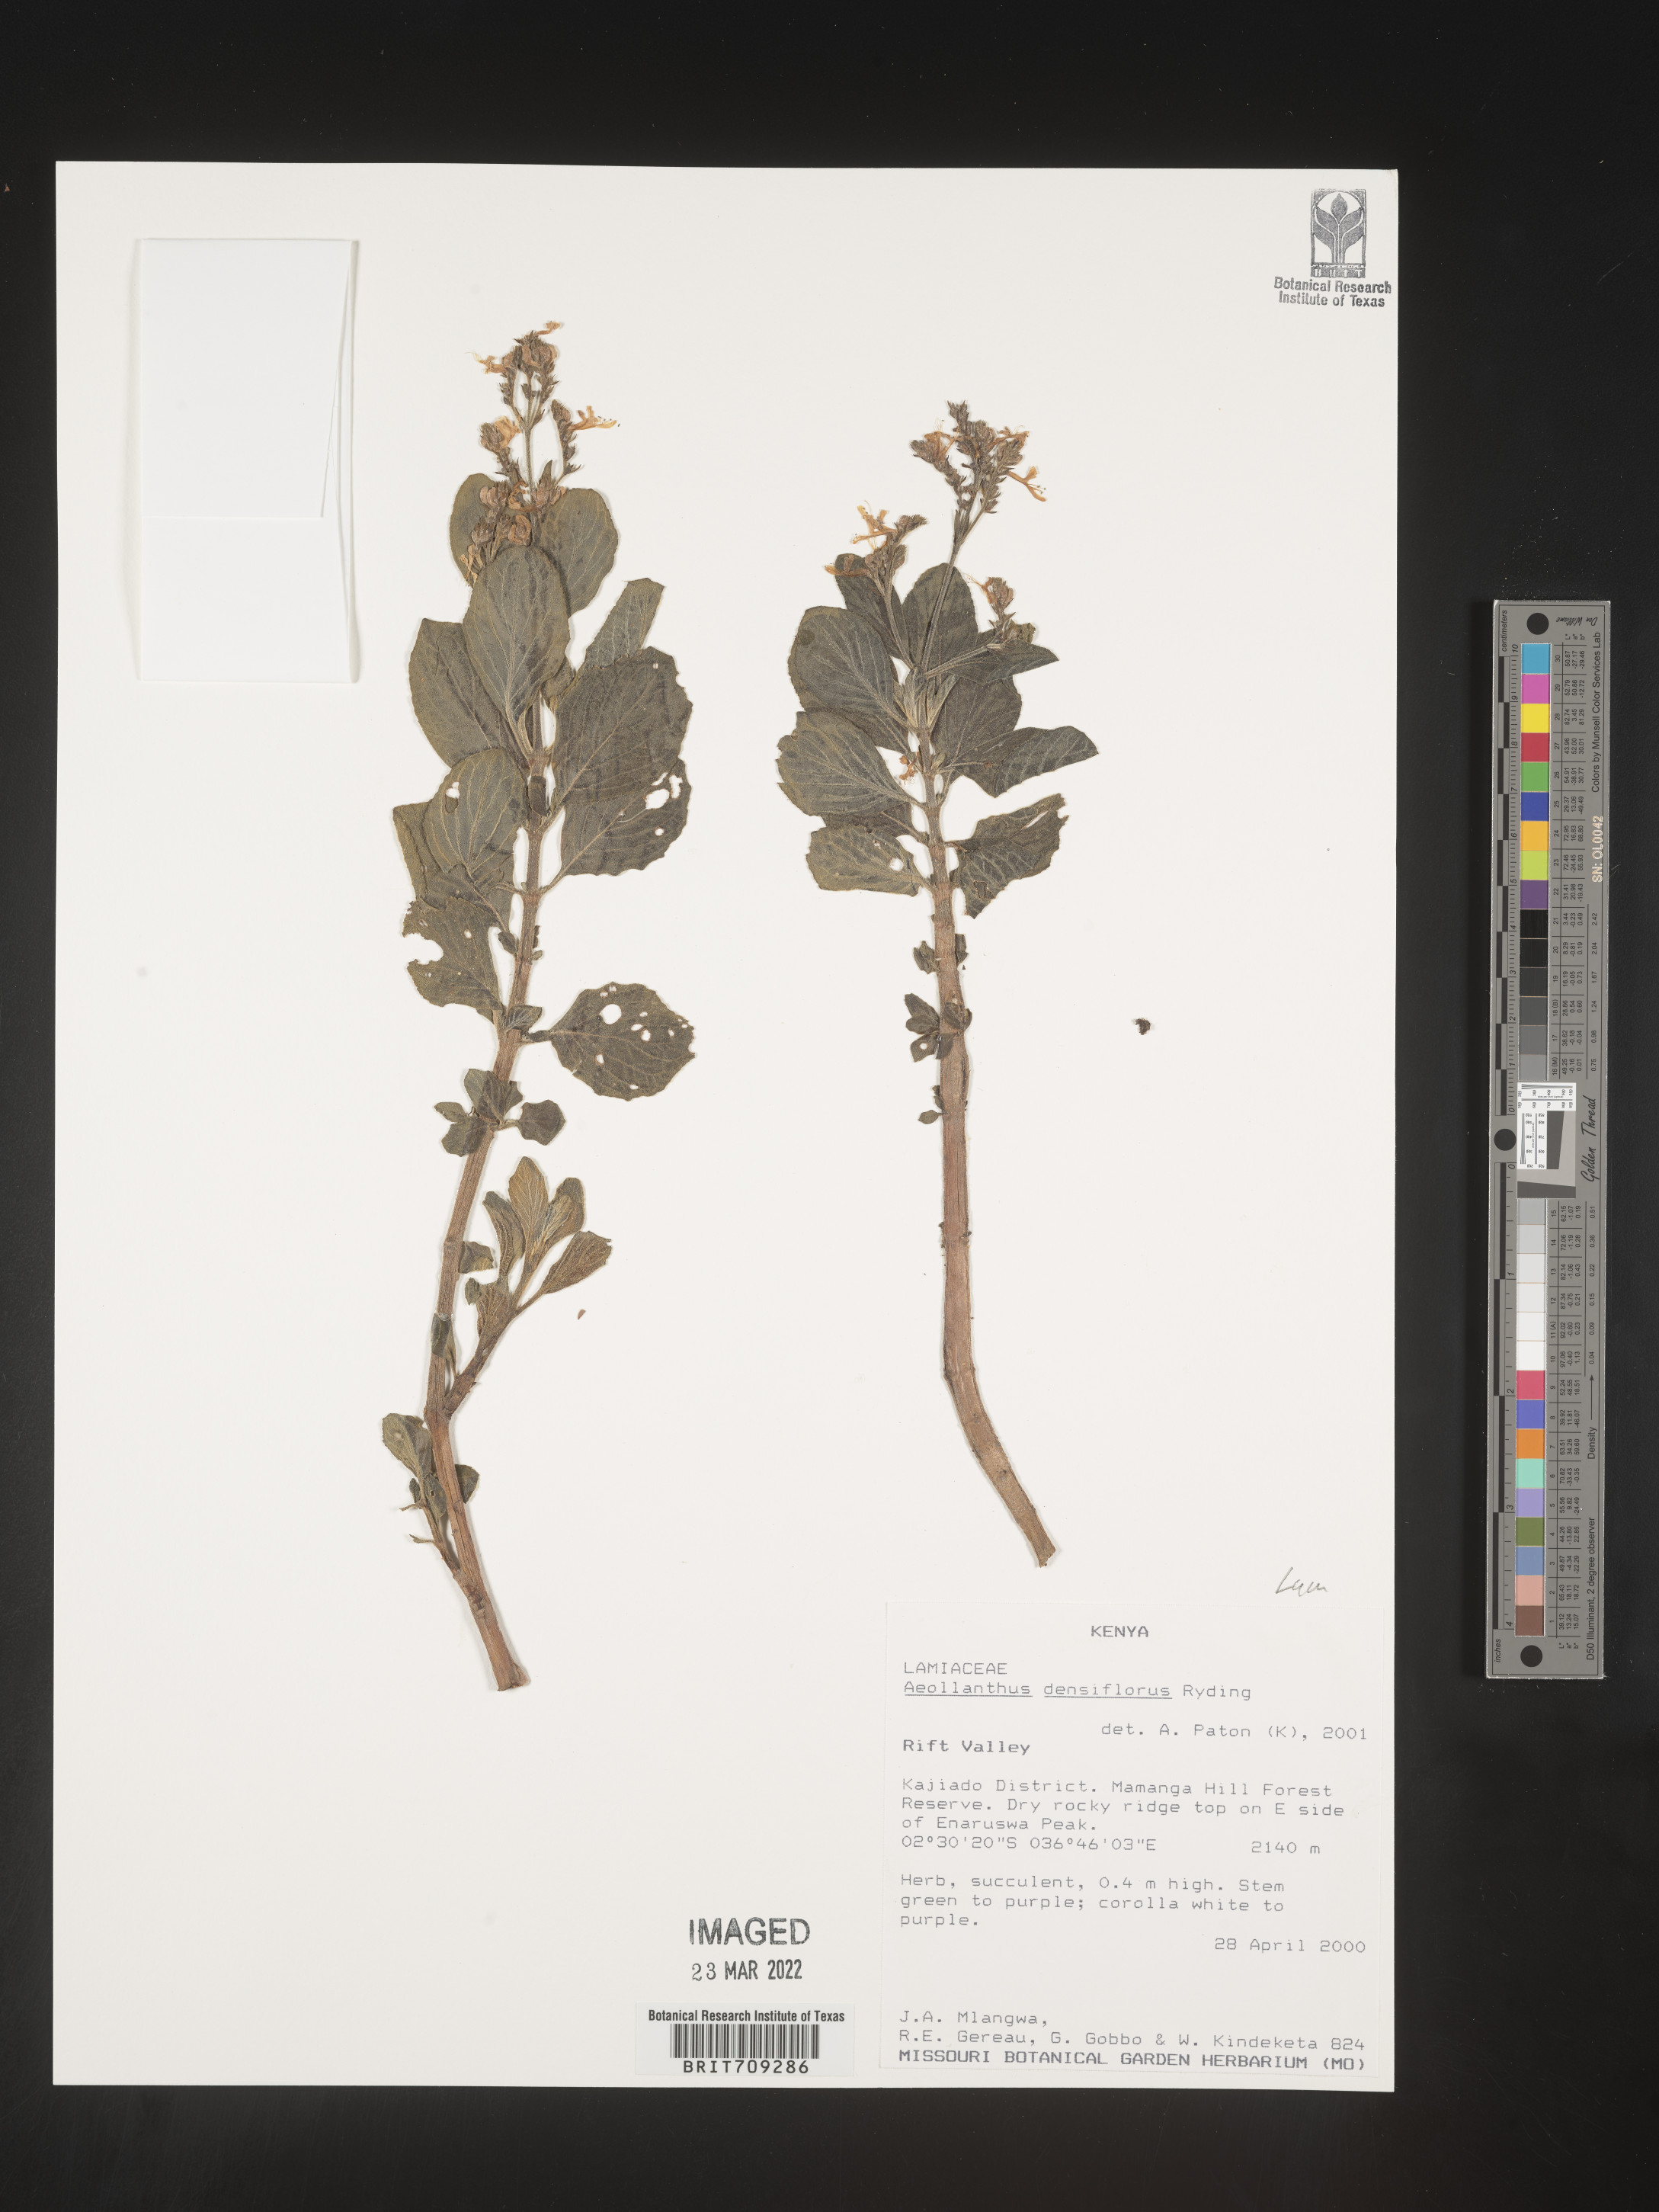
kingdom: Plantae
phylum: Tracheophyta
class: Magnoliopsida
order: Lamiales
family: Lamiaceae
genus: Aeollanthus
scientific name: Aeollanthus
